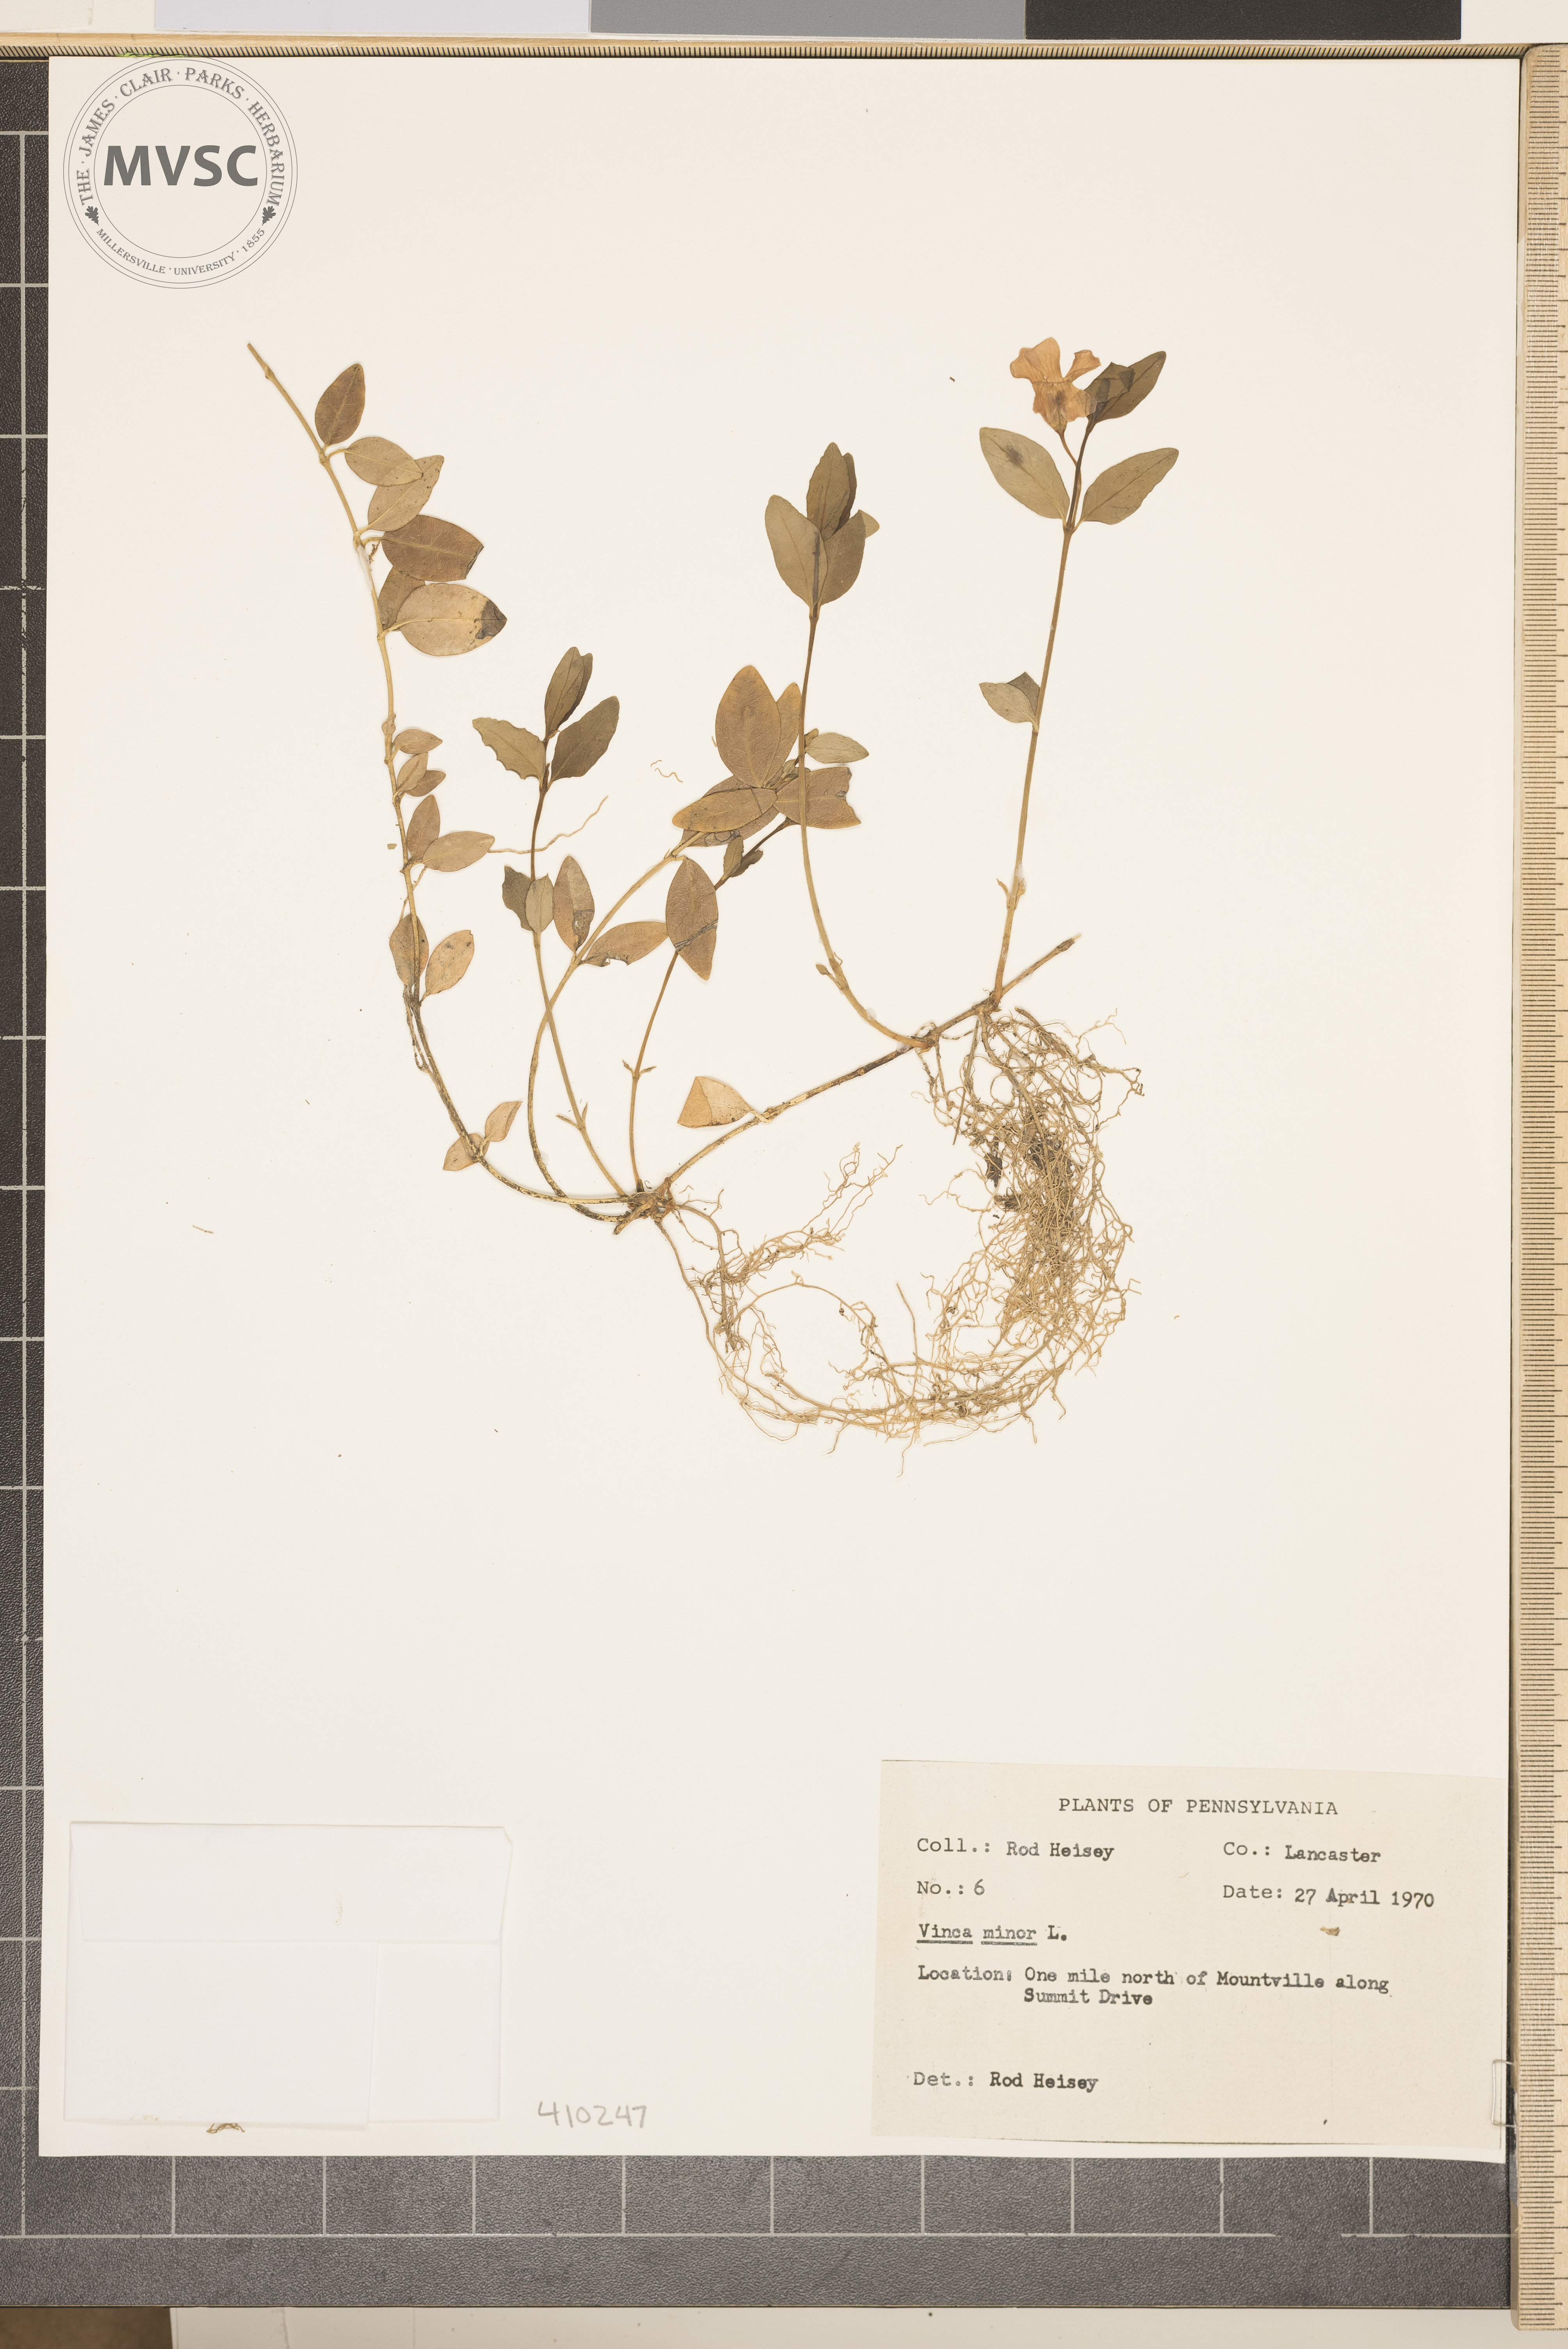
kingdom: Plantae
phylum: Tracheophyta
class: Magnoliopsida
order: Gentianales
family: Apocynaceae
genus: Vinca
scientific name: Vinca minor
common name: Lesser periwinkle
